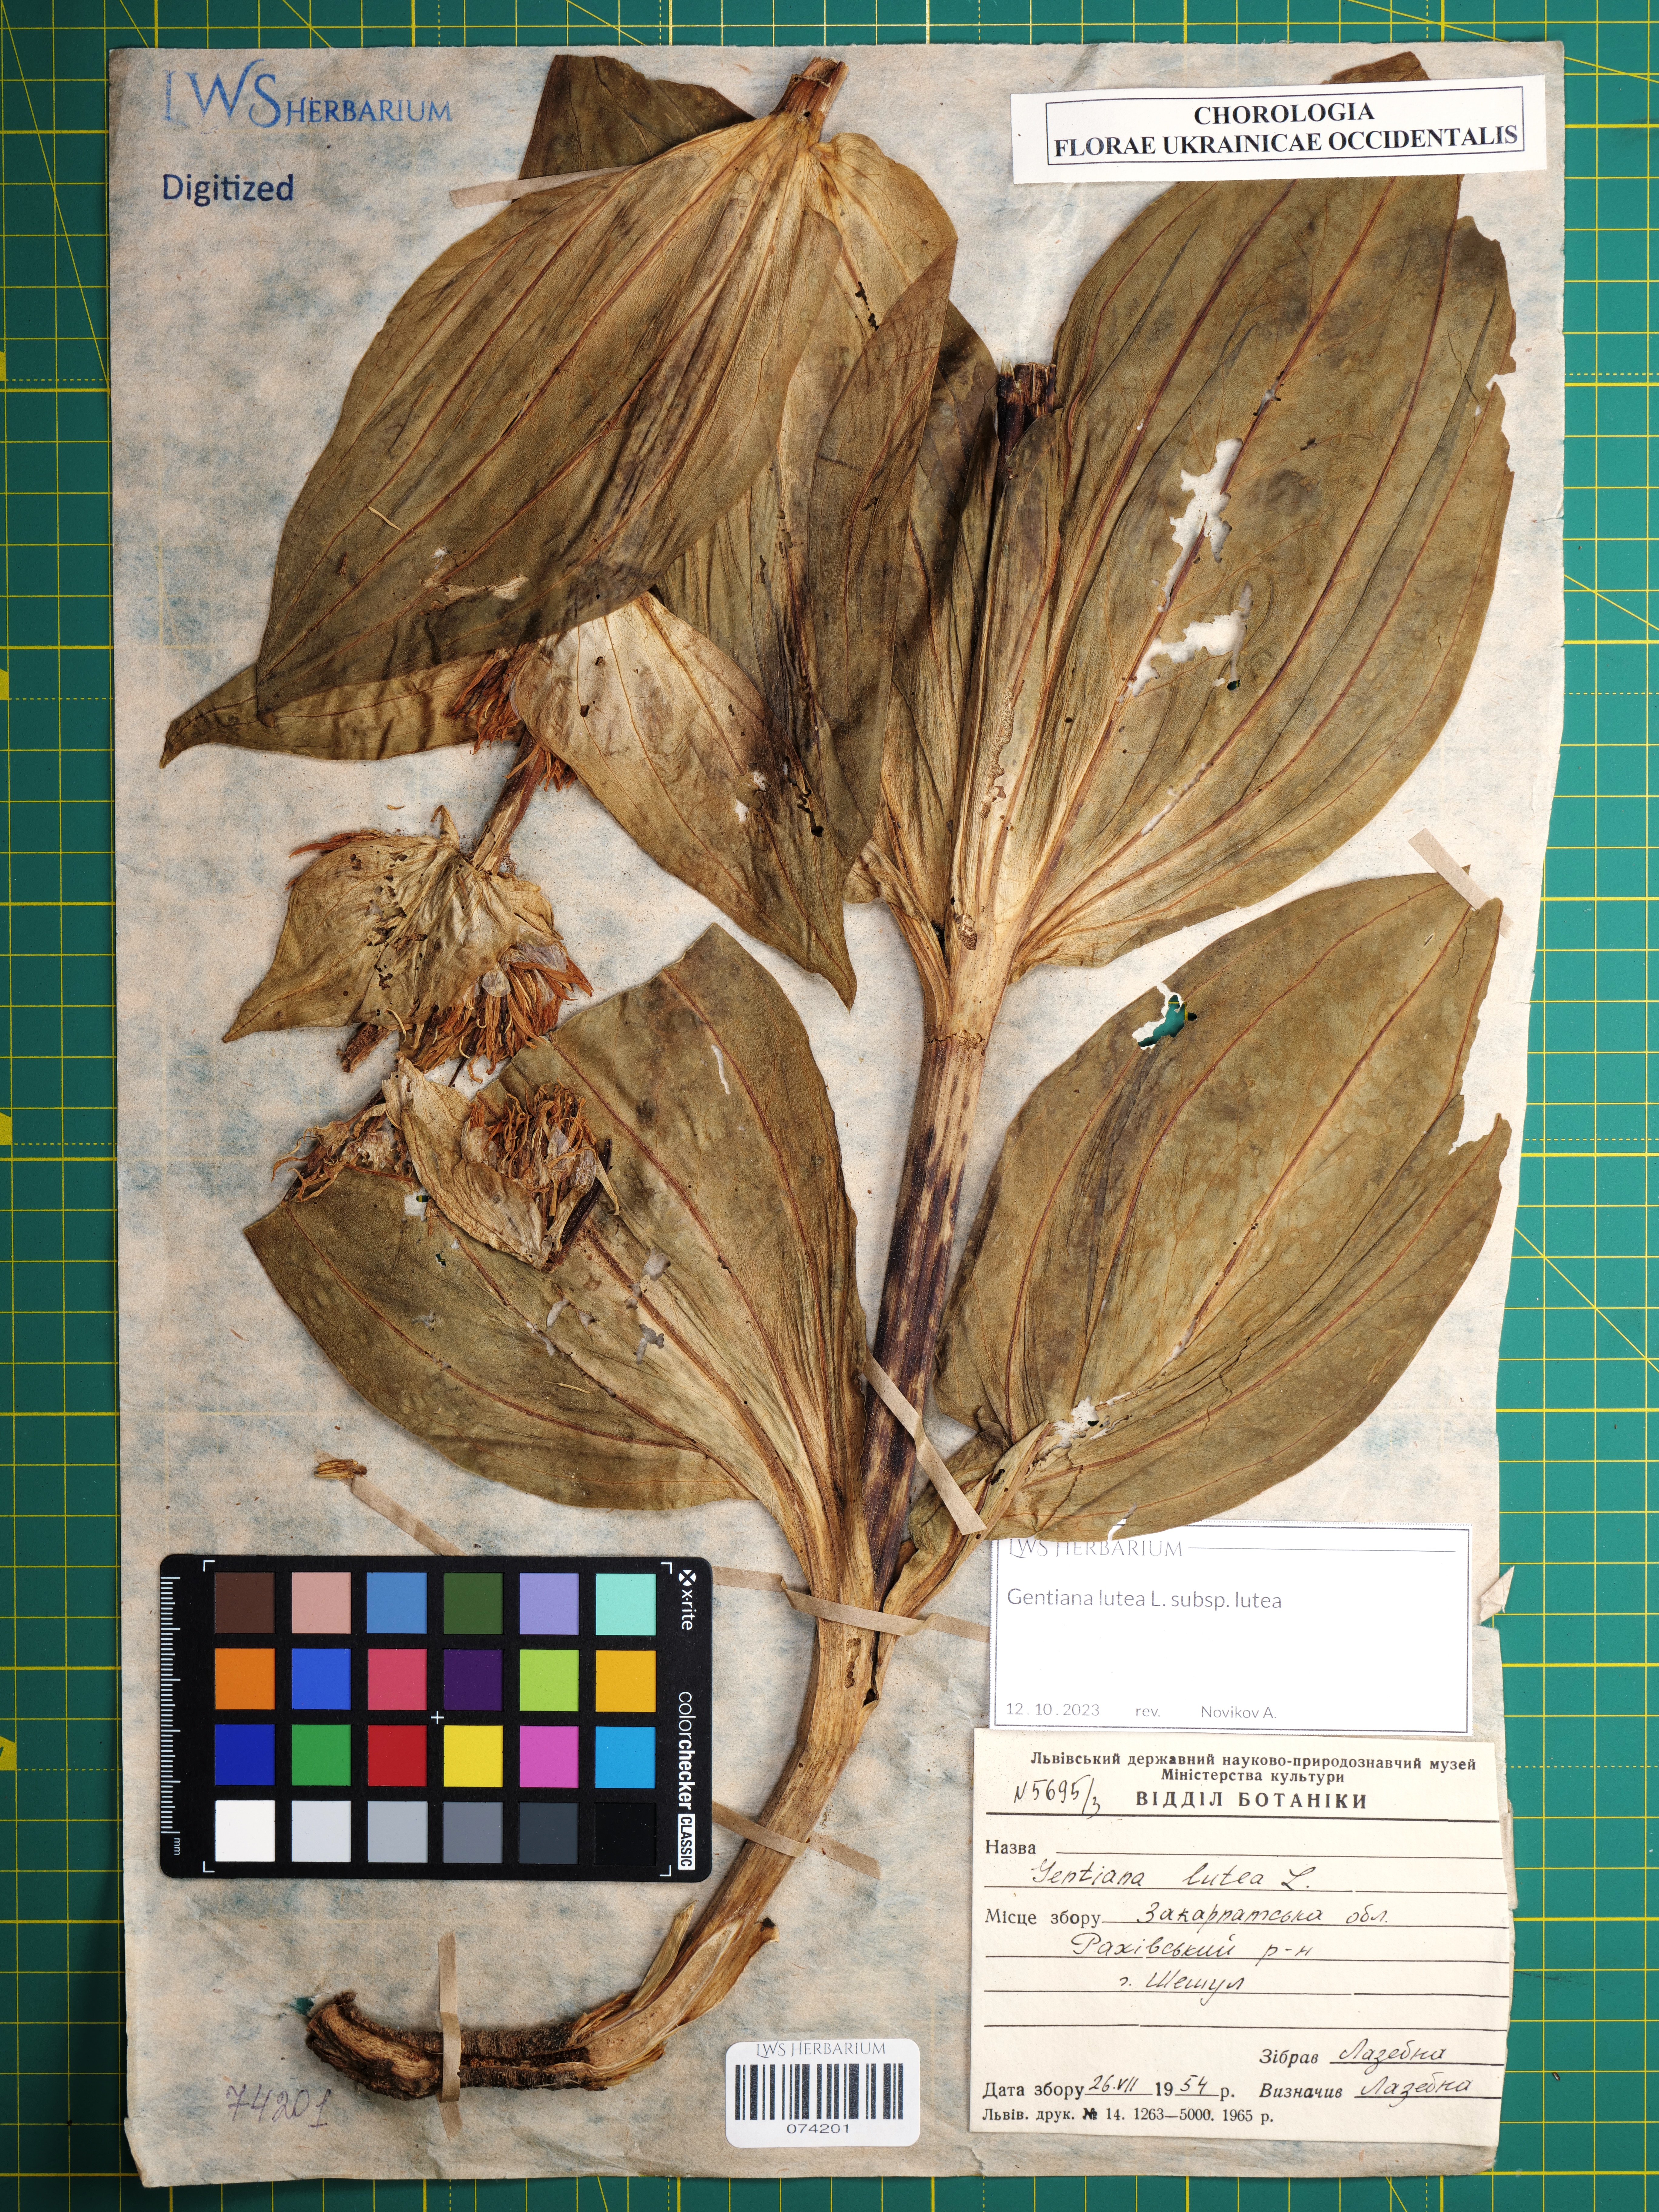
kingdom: Plantae
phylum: Tracheophyta
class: Magnoliopsida
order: Gentianales
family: Gentianaceae
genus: Gentiana
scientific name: Gentiana lutea
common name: Great yellow gentian
